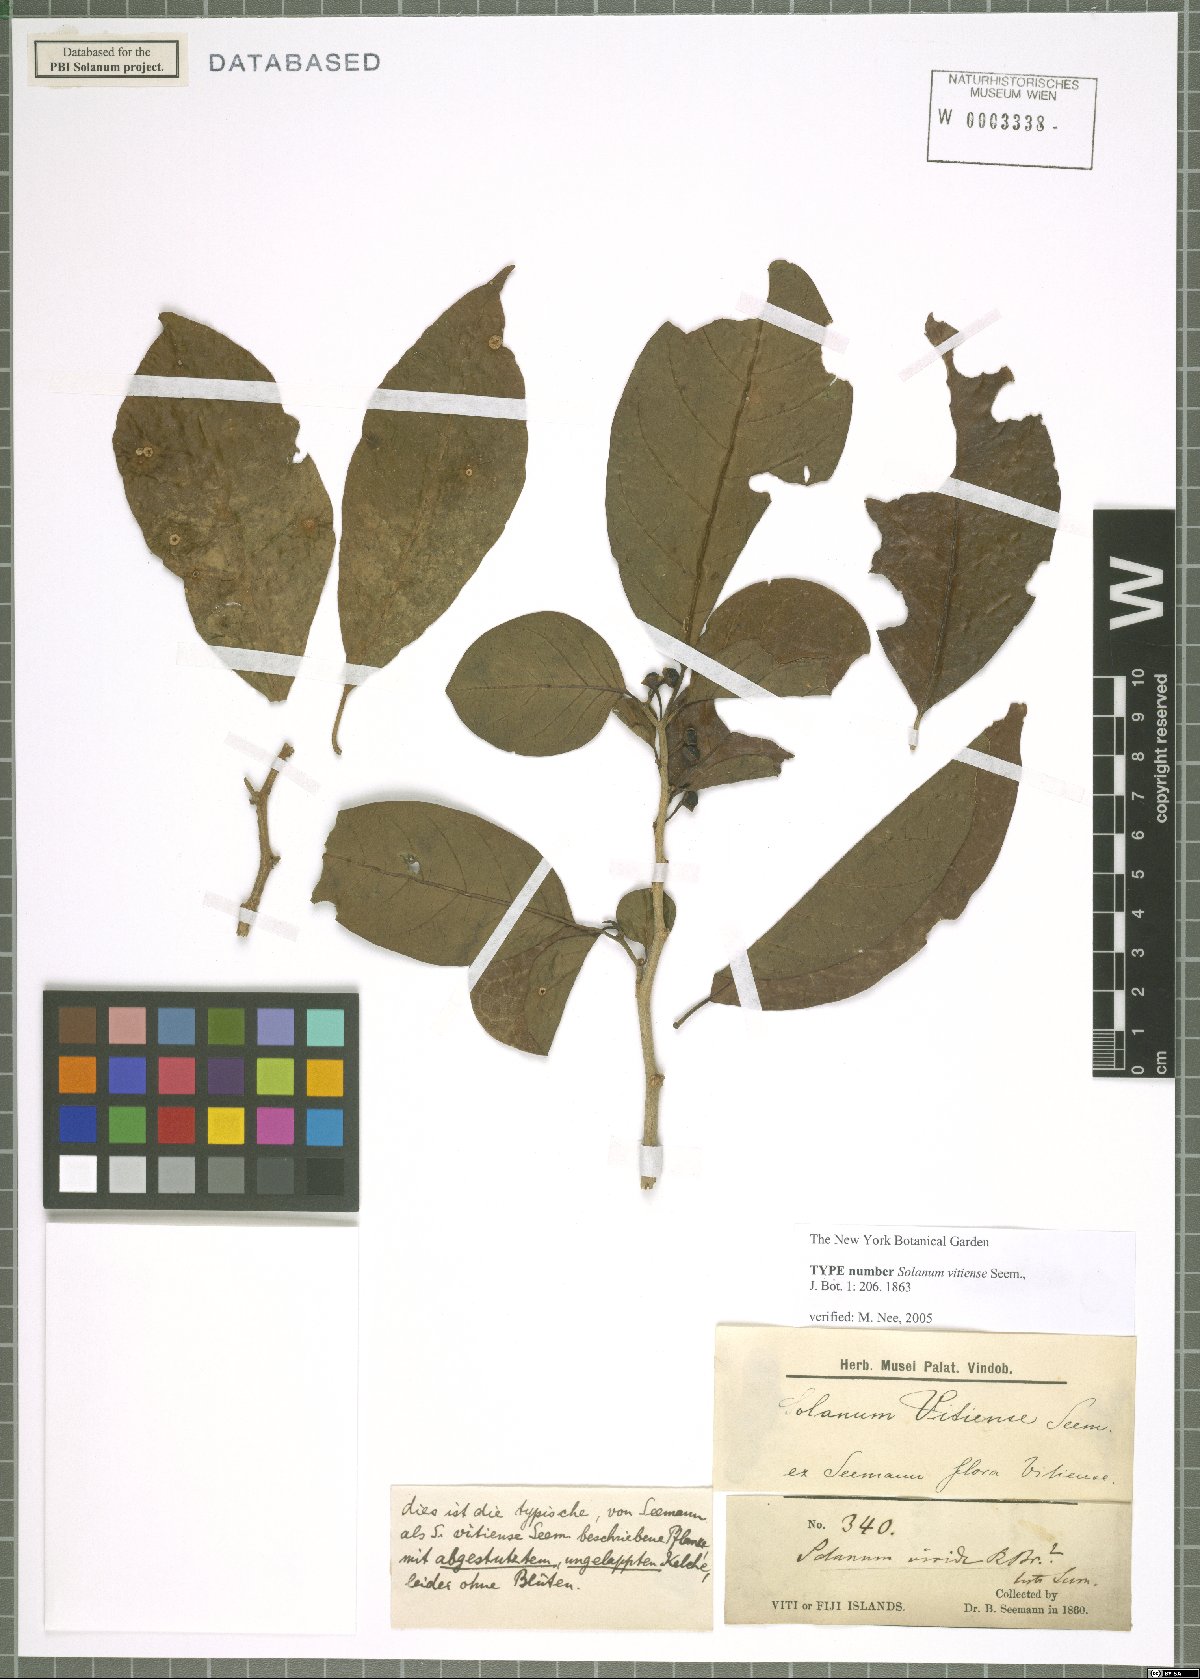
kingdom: Plantae
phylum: Tracheophyta
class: Magnoliopsida
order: Solanales
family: Solanaceae
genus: Lycianthes
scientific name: Lycianthes vitiensis
